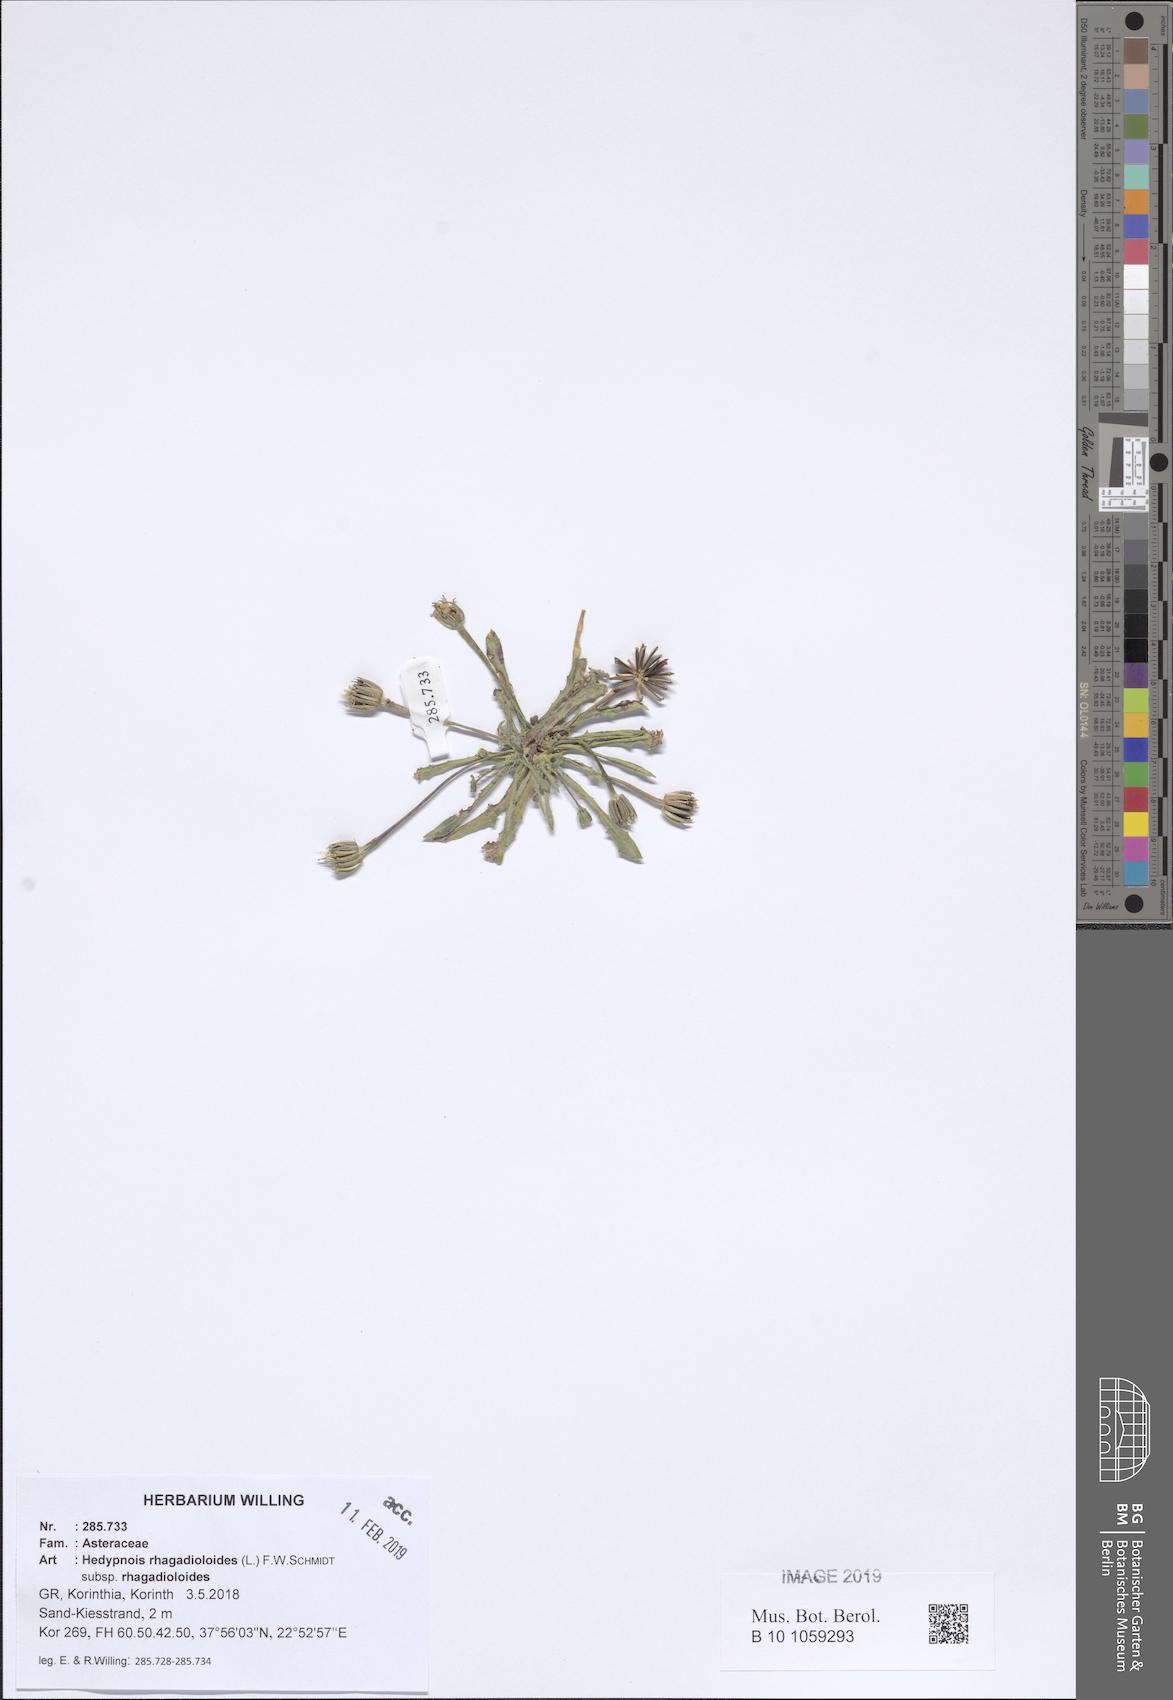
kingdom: Plantae
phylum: Tracheophyta
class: Magnoliopsida
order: Asterales
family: Asteraceae
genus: Hedypnois
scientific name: Hedypnois rhagadioloides
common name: Cretan weed
